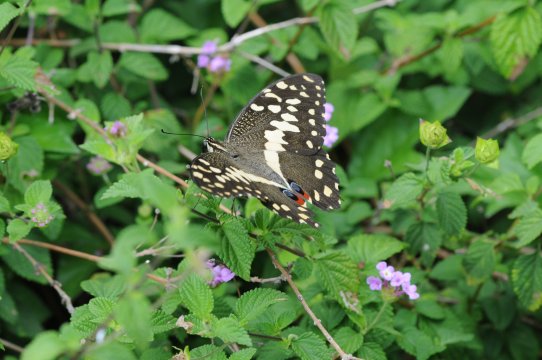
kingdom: Animalia
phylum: Arthropoda
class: Insecta
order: Lepidoptera
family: Papilionidae
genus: Papilio
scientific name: Papilio demodocus
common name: Citrus Swallowtail
